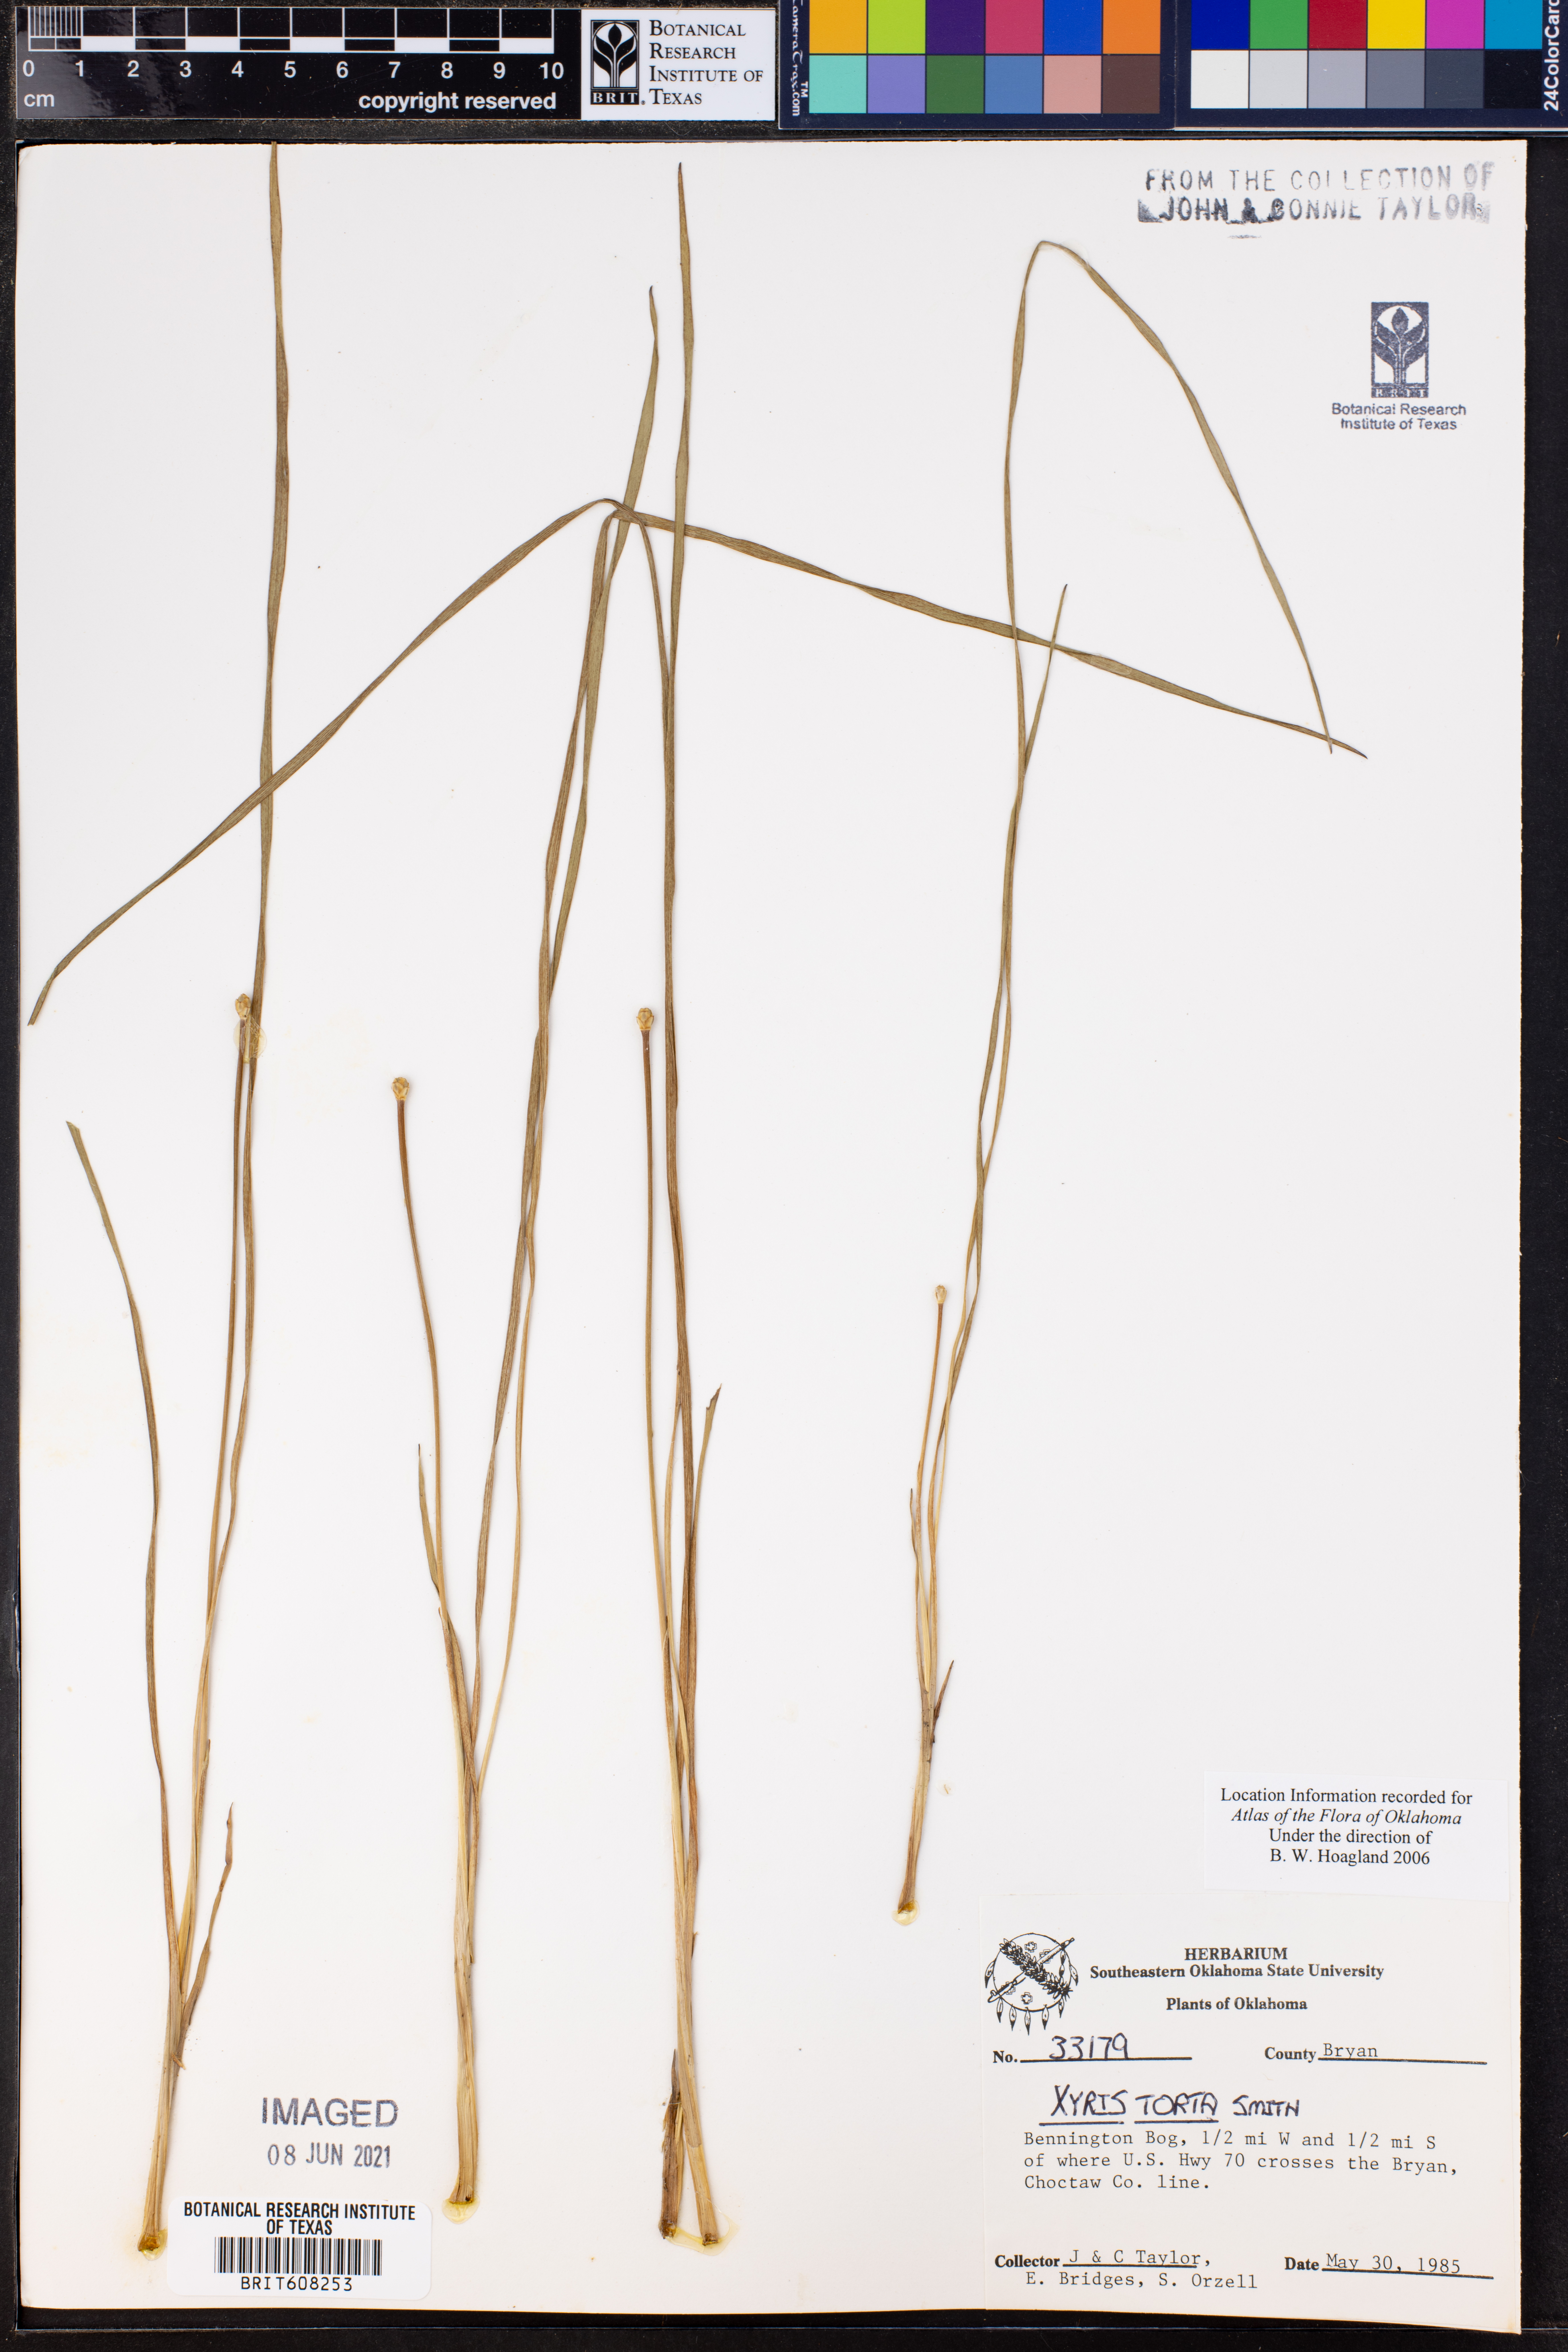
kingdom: Plantae
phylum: Tracheophyta
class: Liliopsida
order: Poales
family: Xyridaceae
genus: Xyris
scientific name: Xyris torta
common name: Common yelloweyed grass
